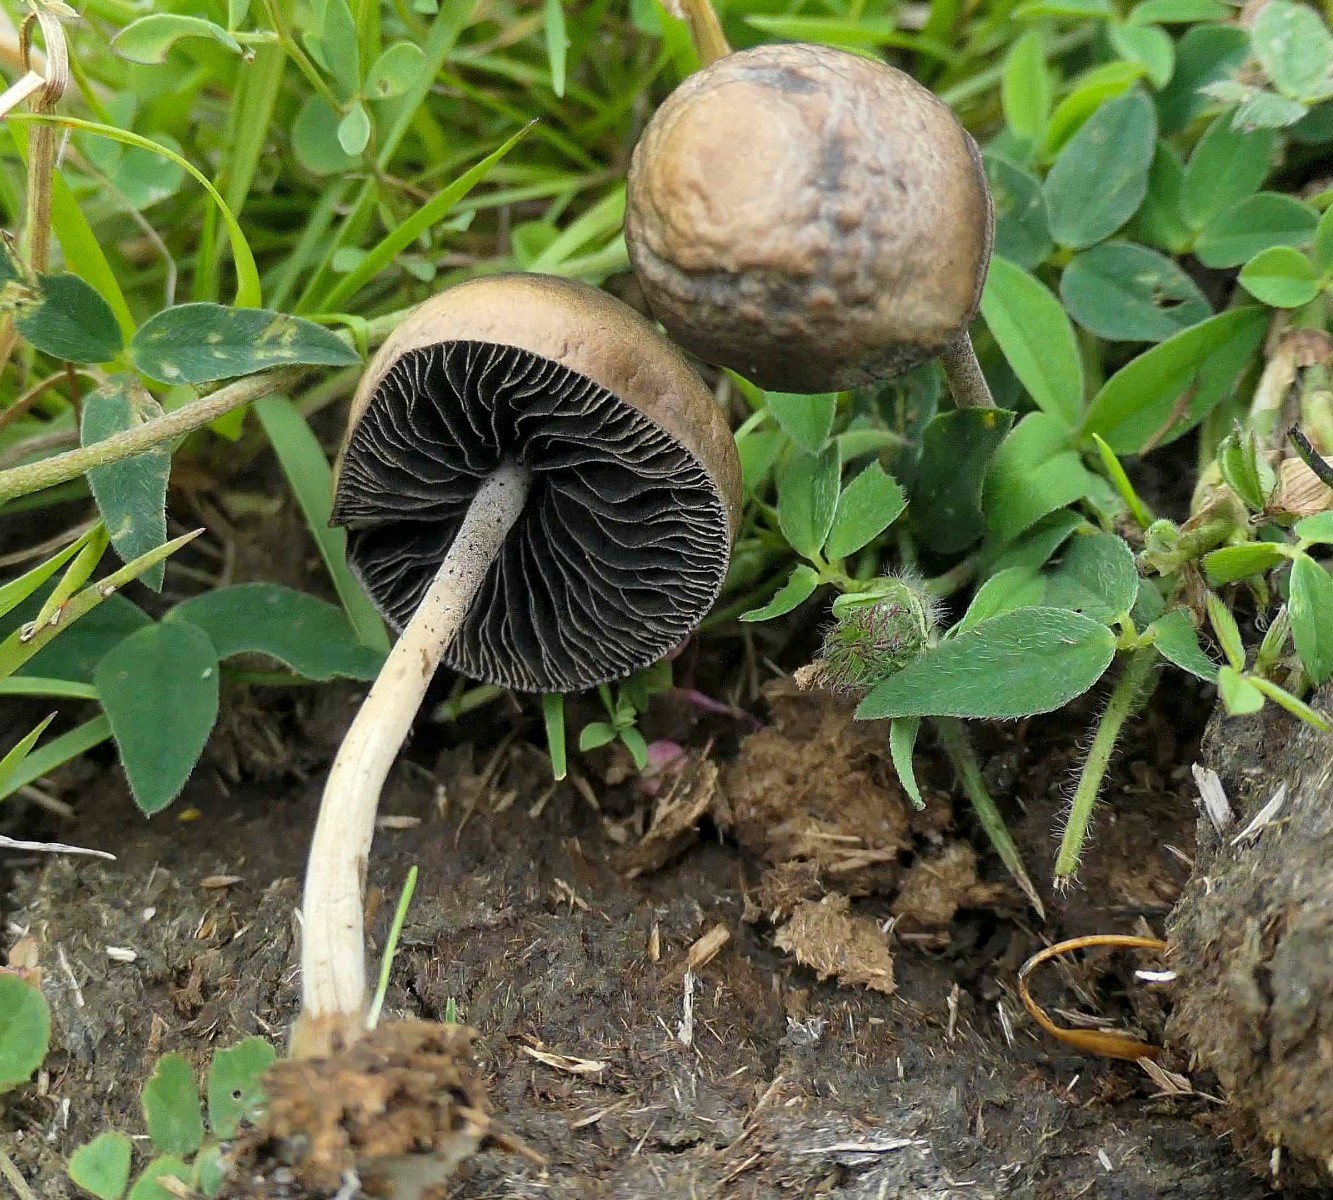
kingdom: Fungi
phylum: Basidiomycota
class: Agaricomycetes
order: Agaricales
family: Bolbitiaceae
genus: Panaeolus
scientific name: Panaeolus
